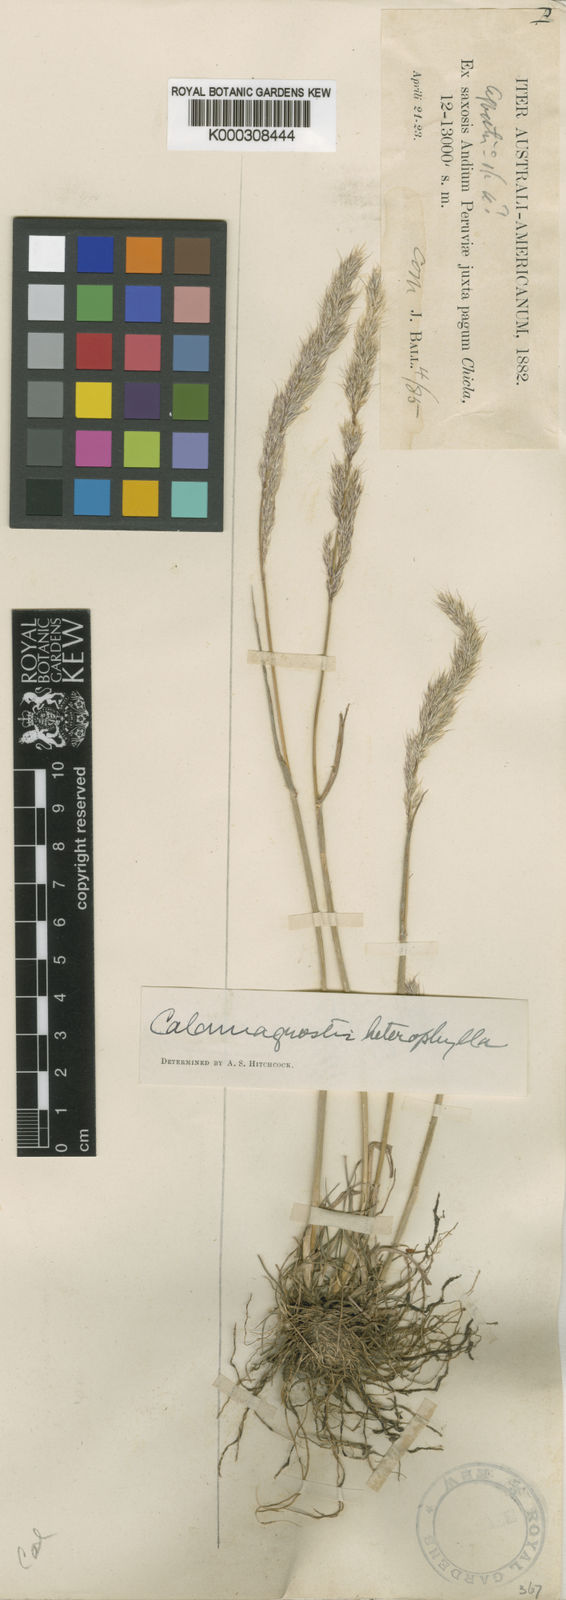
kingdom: Plantae
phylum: Tracheophyta
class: Liliopsida
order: Poales
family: Poaceae
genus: Cinnagrostis
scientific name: Cinnagrostis heterophylla
